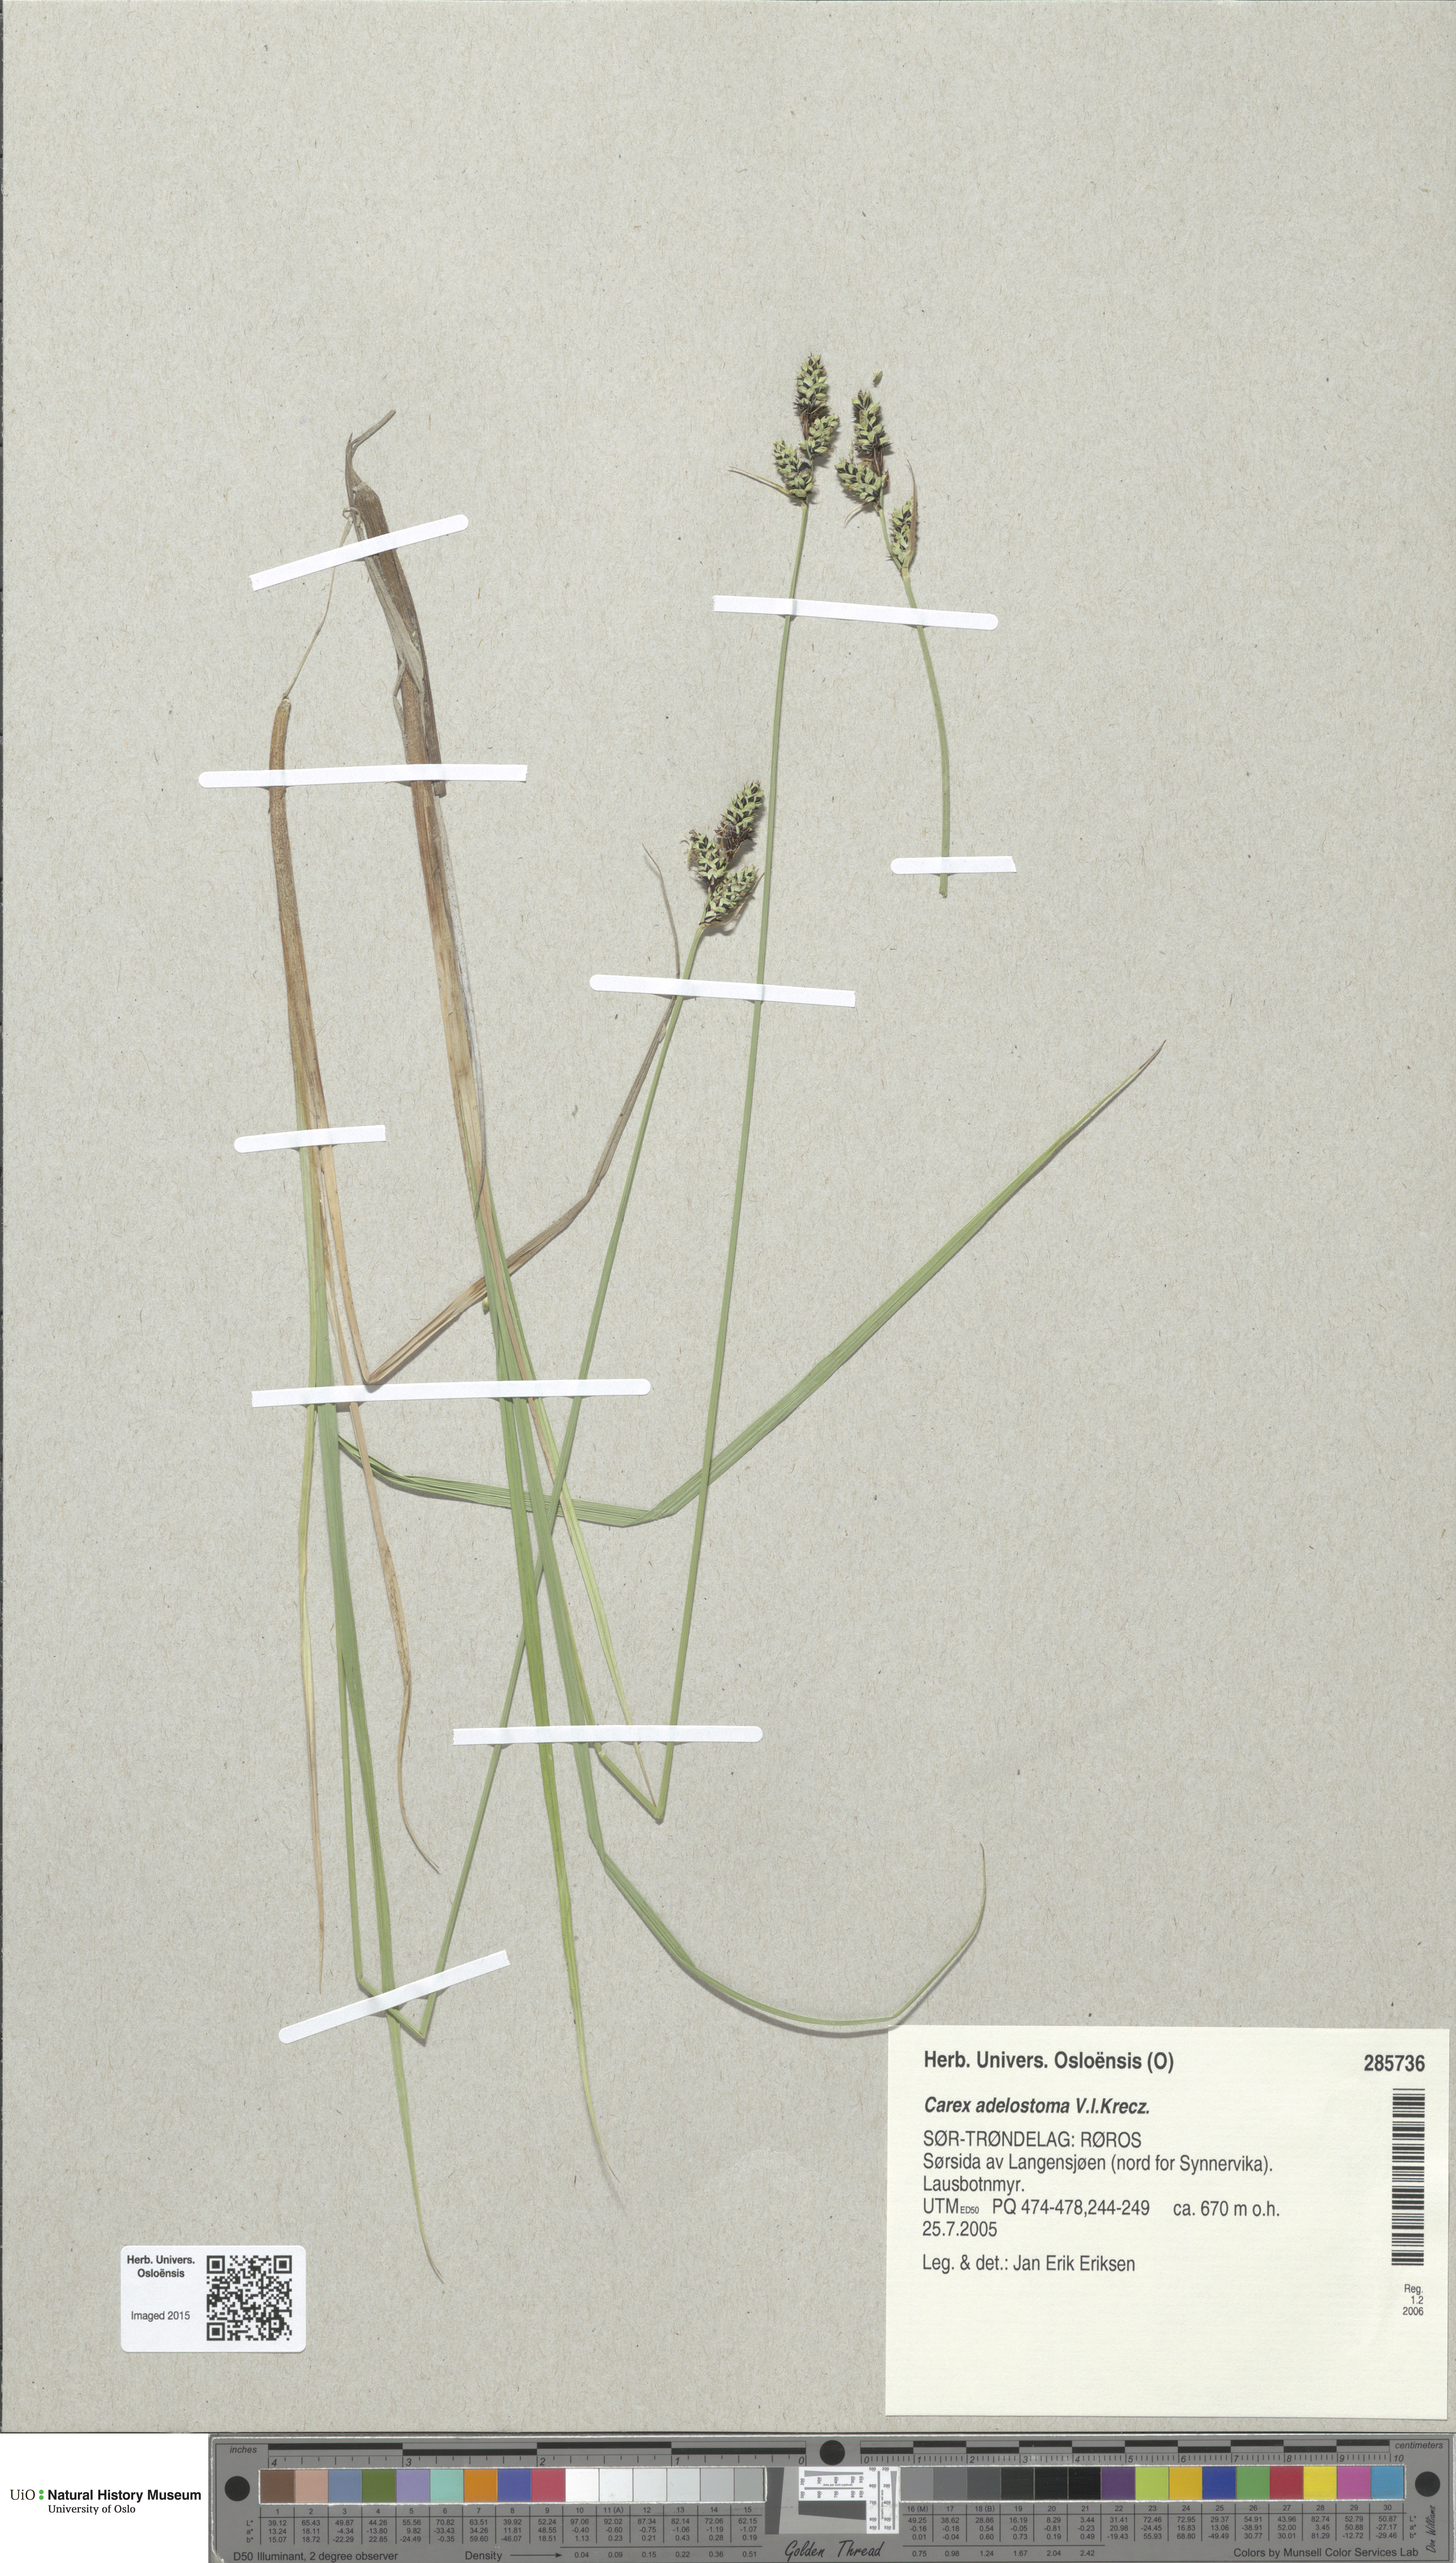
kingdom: Plantae
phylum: Tracheophyta
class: Liliopsida
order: Poales
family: Cyperaceae
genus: Carex
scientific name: Carex adelostoma
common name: Circumpolar sedge
